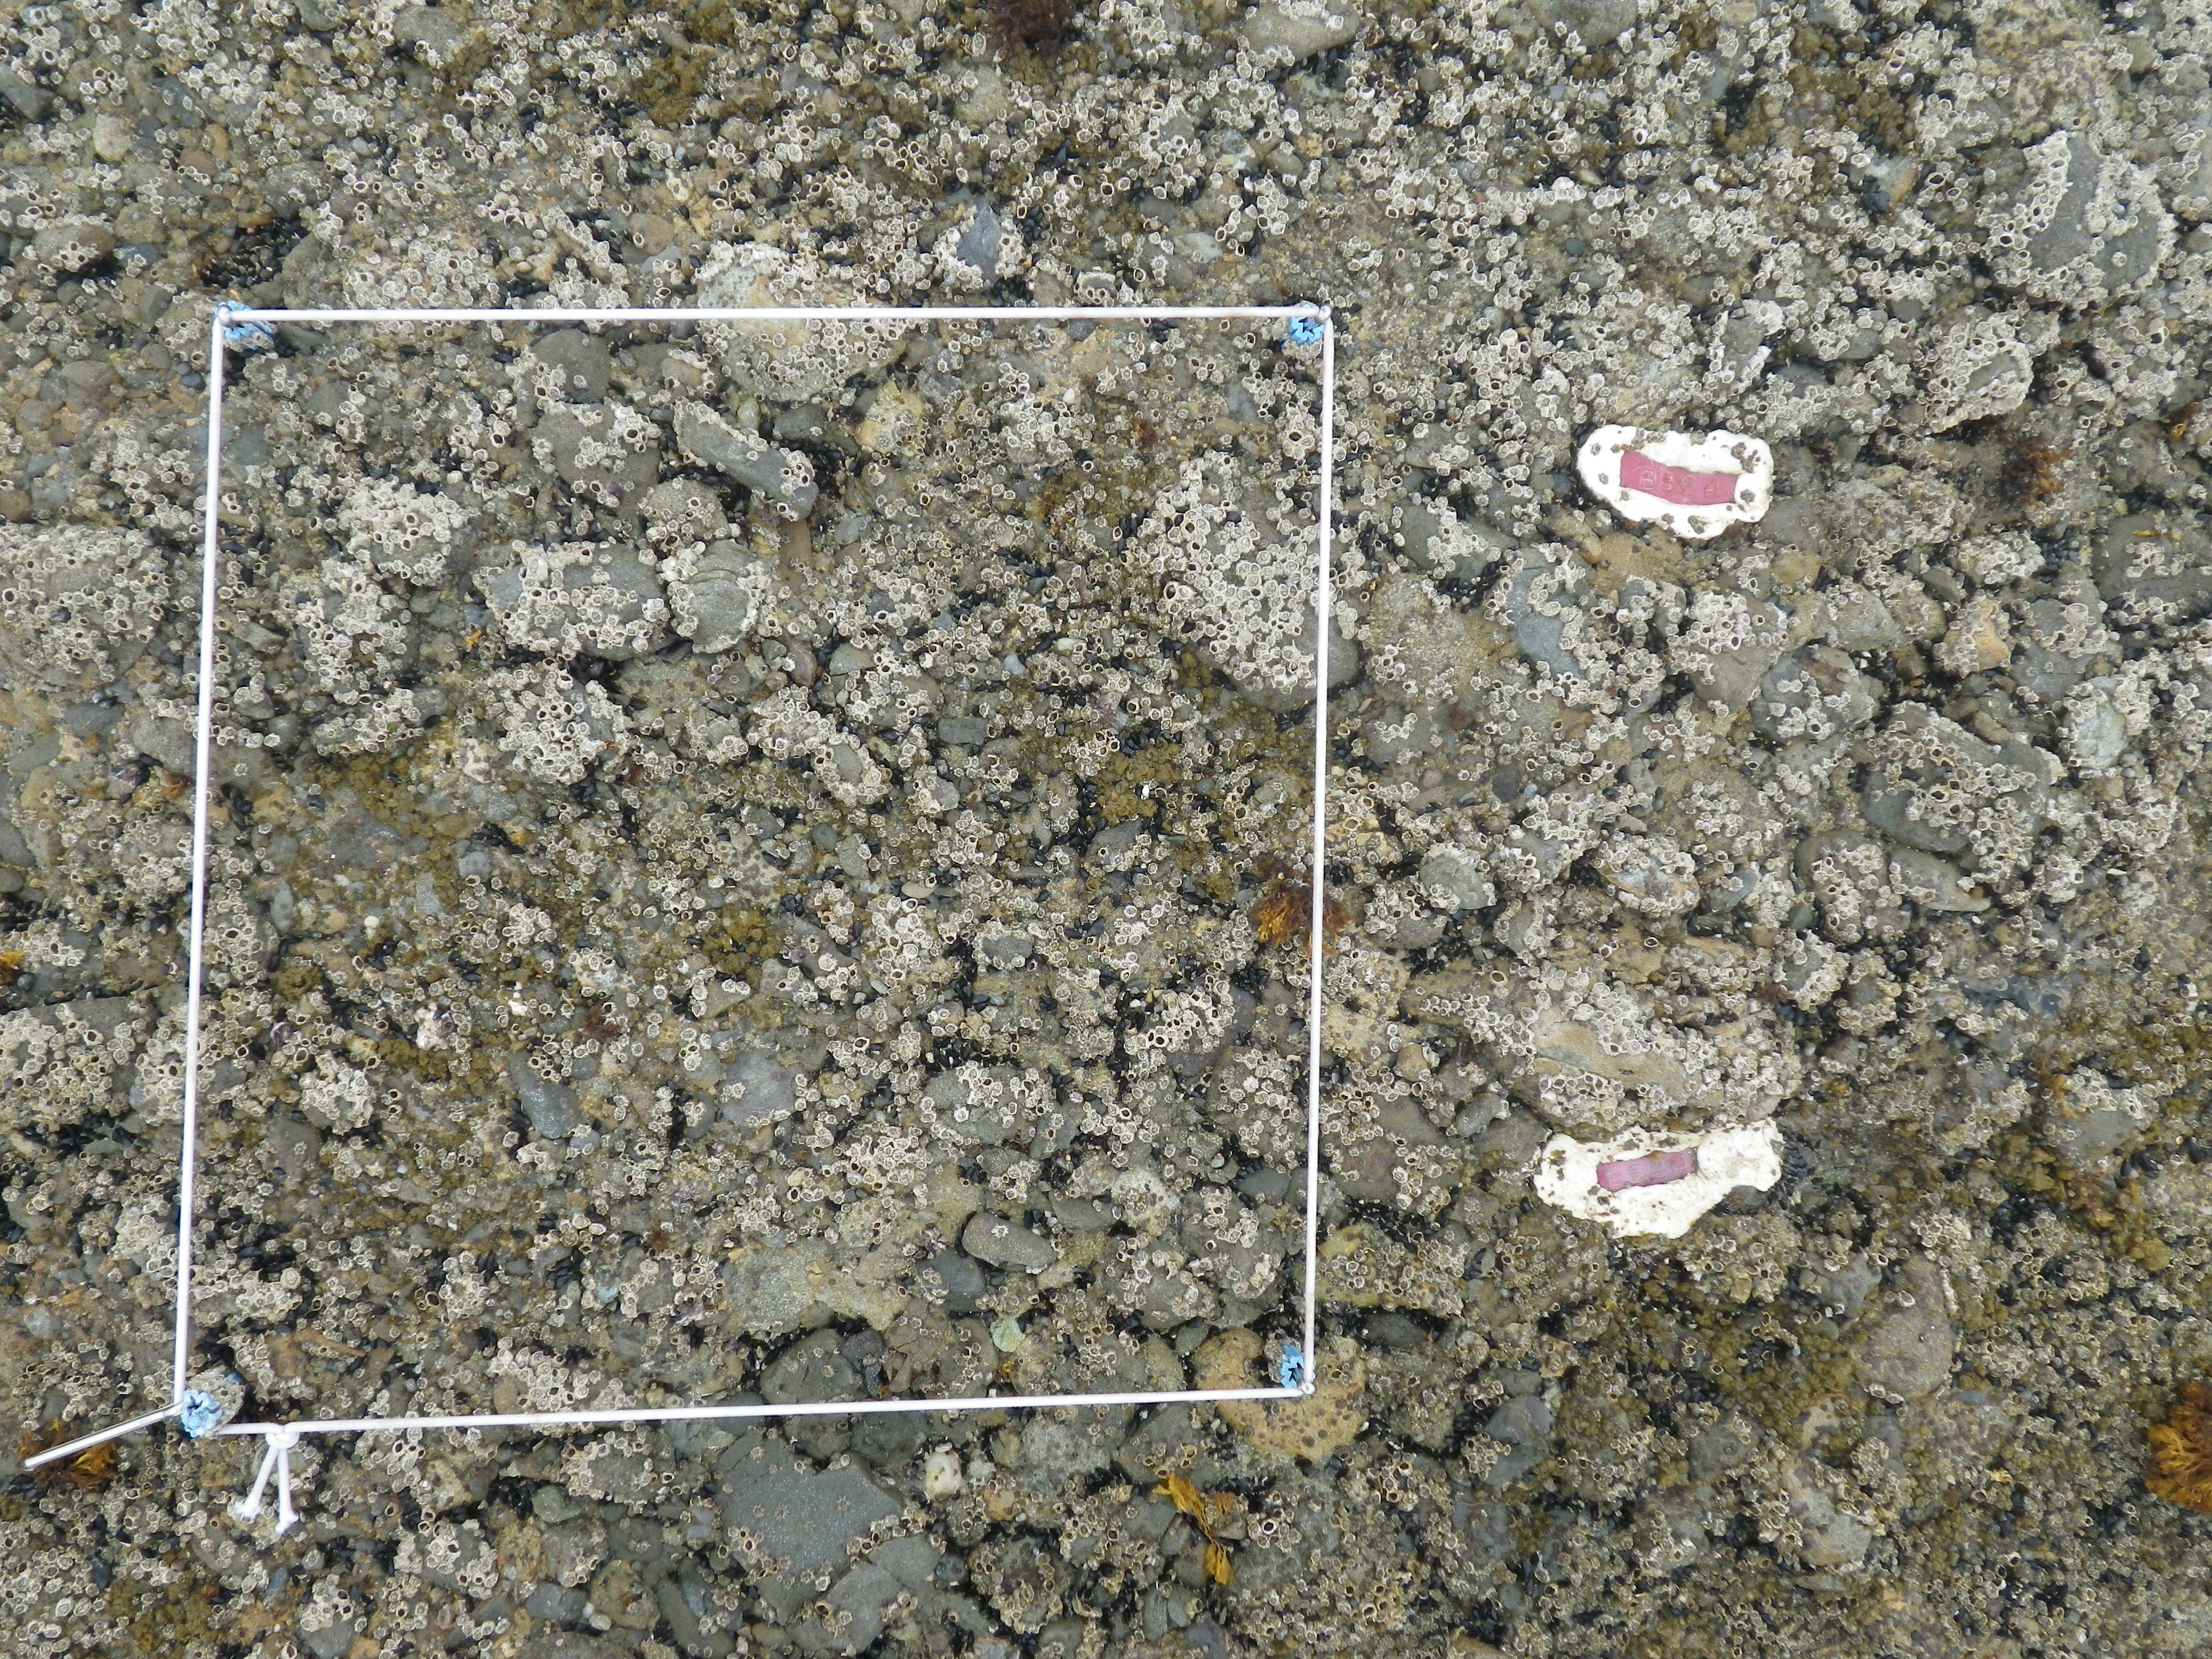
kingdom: Animalia
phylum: Arthropoda
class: Maxillopoda
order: Sessilia
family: Chthamalidae
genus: Chthamalus
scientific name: Chthamalus challengeri
